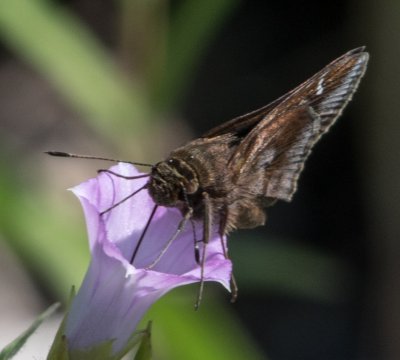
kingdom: Animalia
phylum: Arthropoda
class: Insecta
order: Lepidoptera
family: Hesperiidae
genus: Lerema
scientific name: Lerema accius
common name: Clouded Skipper
